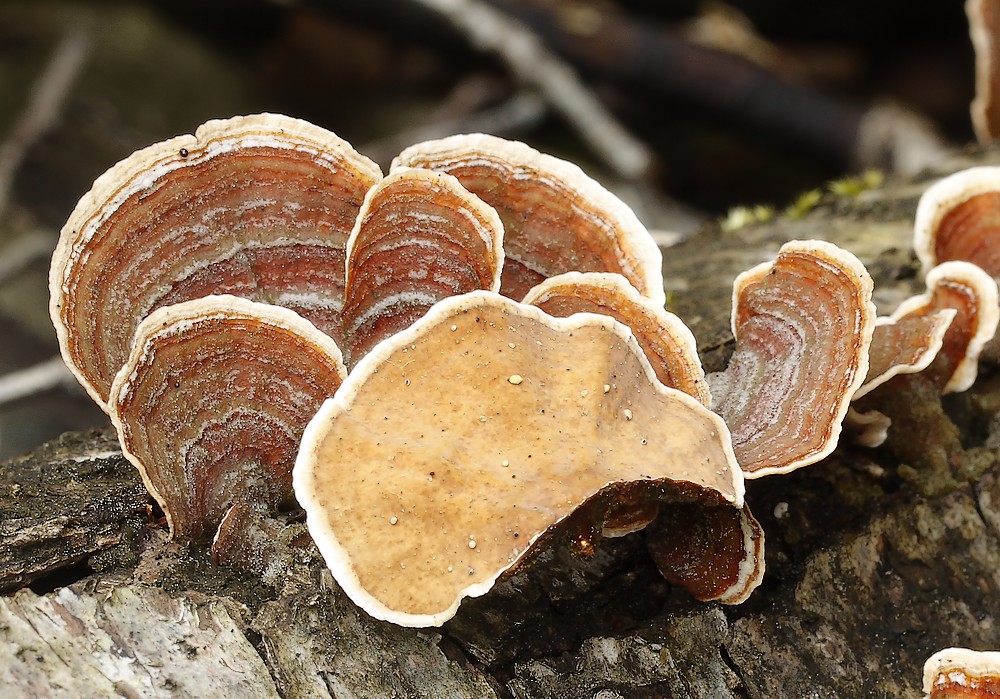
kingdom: Fungi
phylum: Basidiomycota
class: Agaricomycetes
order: Russulales
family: Stereaceae
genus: Stereum
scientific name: Stereum subtomentosum
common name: smuk lædersvamp
